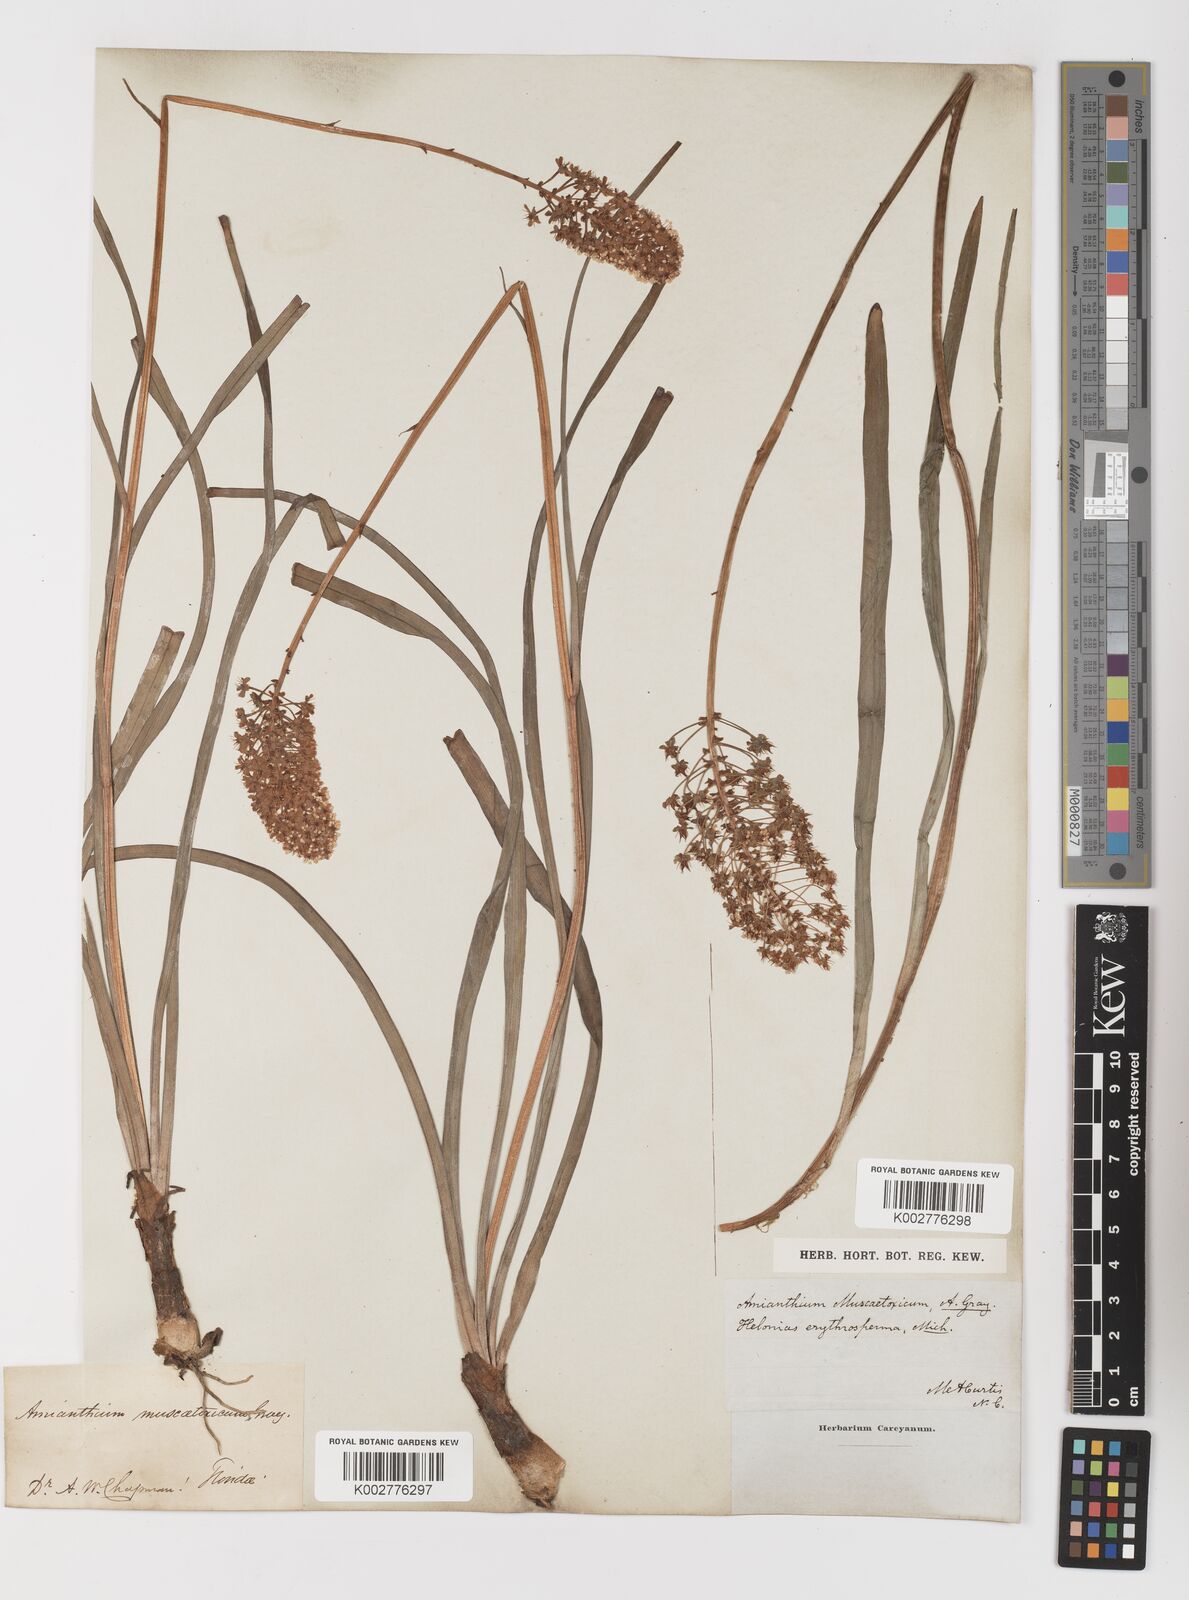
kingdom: Plantae
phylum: Tracheophyta
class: Liliopsida
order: Liliales
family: Melanthiaceae
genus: Amianthium
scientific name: Amianthium muscitoxicum
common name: Fly-poison
